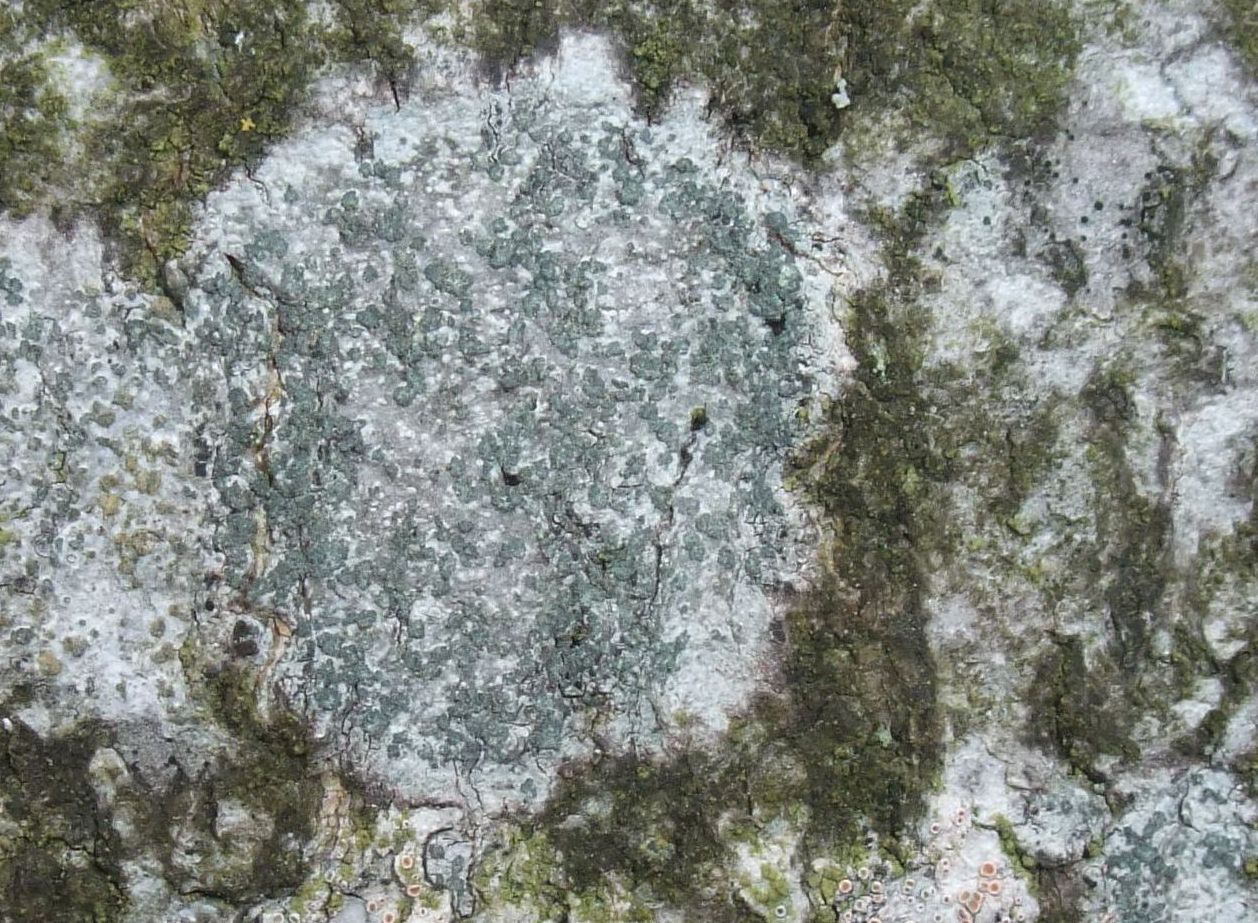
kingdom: Fungi
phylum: Ascomycota
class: Lecanoromycetes
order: Caliciales
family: Caliciaceae
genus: Buellia
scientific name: Buellia griseovirens
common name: grågrøn sortskivelav
